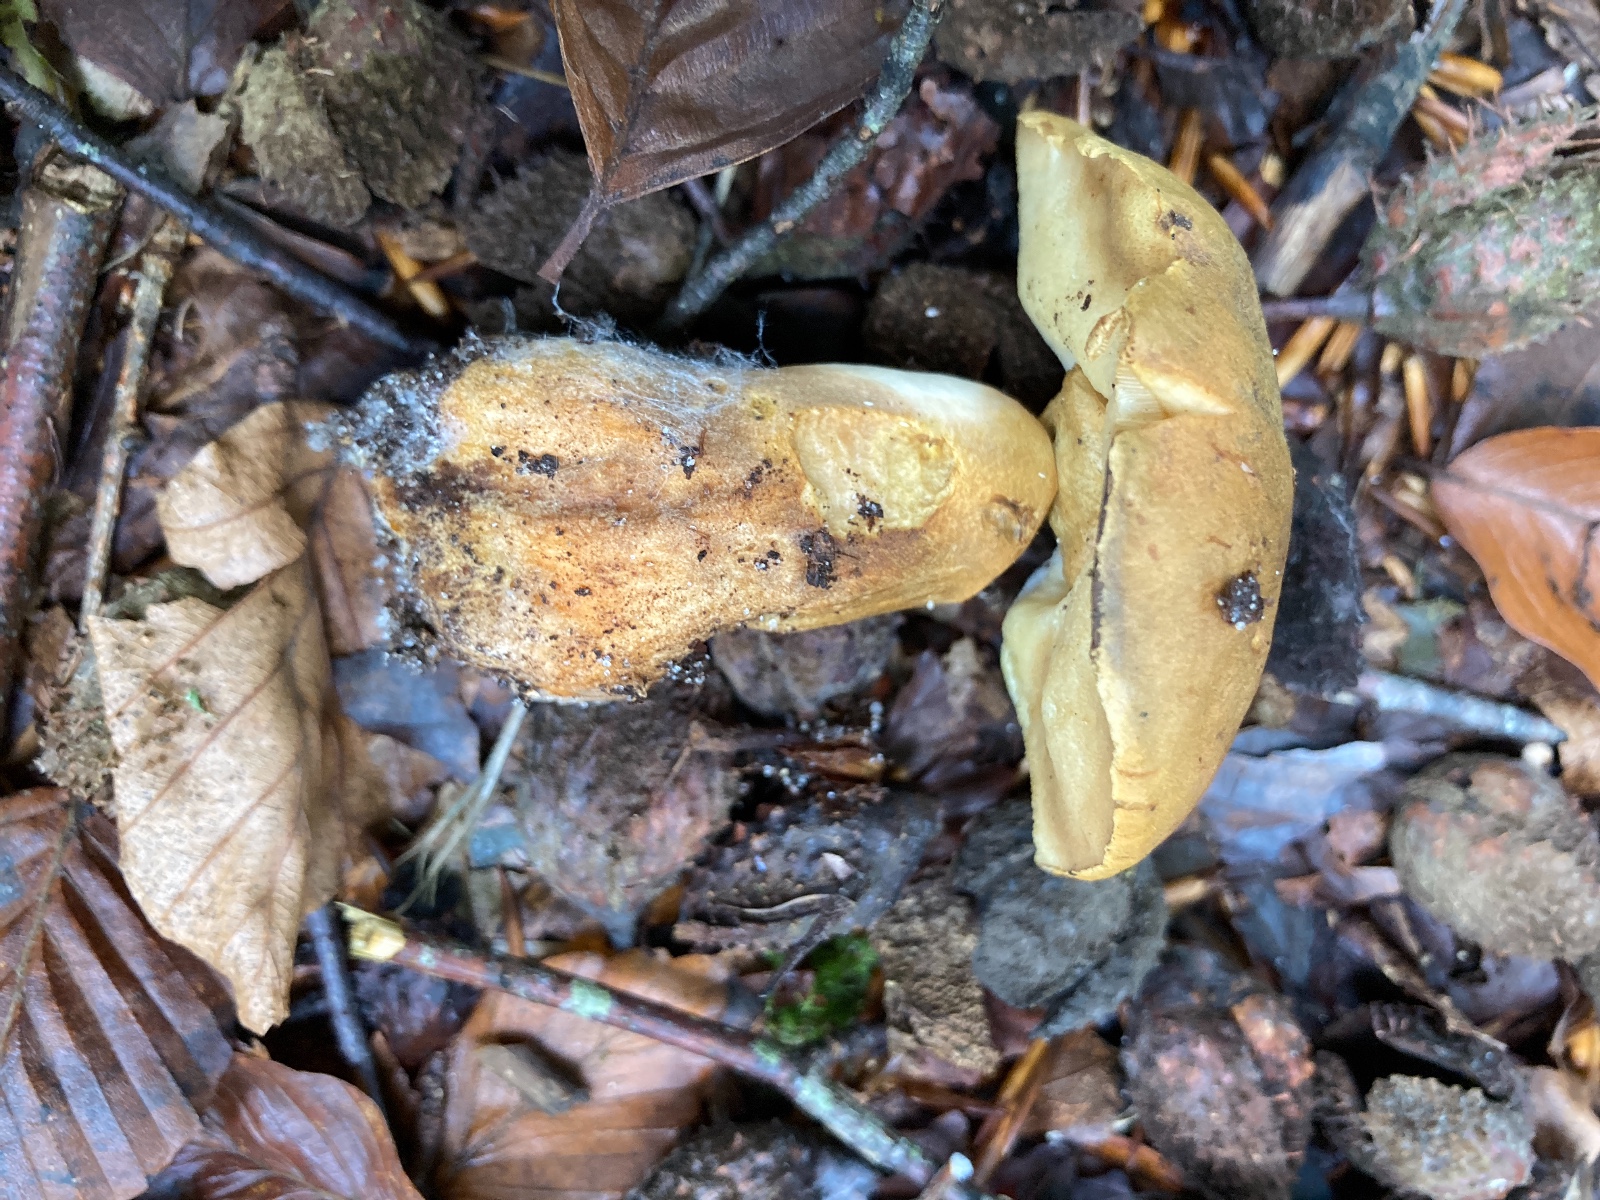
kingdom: Fungi
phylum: Basidiomycota
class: Agaricomycetes
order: Boletales
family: Gyroporaceae
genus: Gyroporus
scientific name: Gyroporus castaneus
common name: kastanie-kammerrørhat
